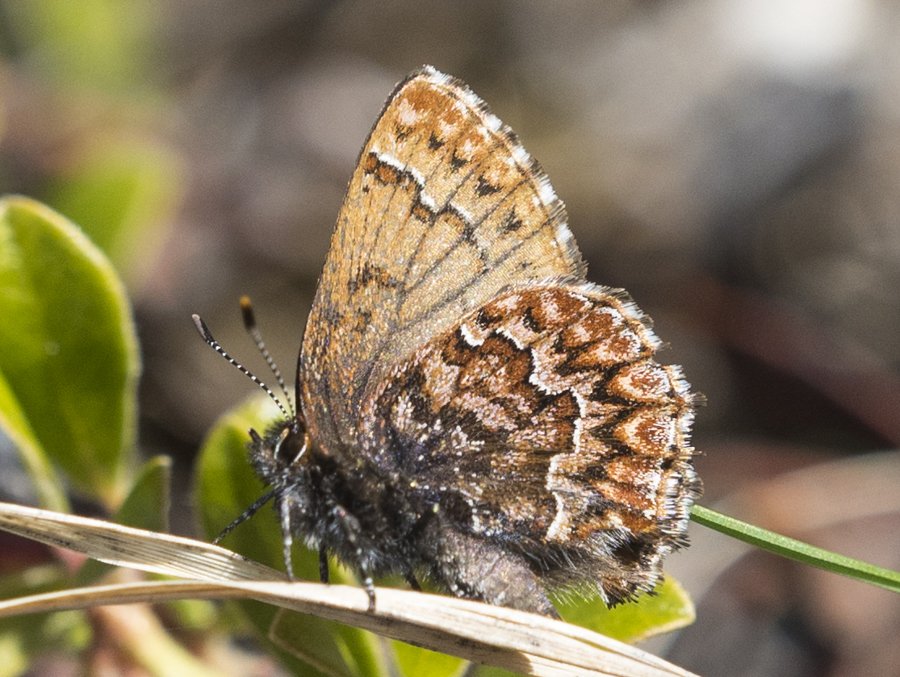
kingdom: Animalia
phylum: Arthropoda
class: Insecta
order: Lepidoptera
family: Lycaenidae
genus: Incisalia
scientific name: Incisalia eryphon
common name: Western Pine Elfin
